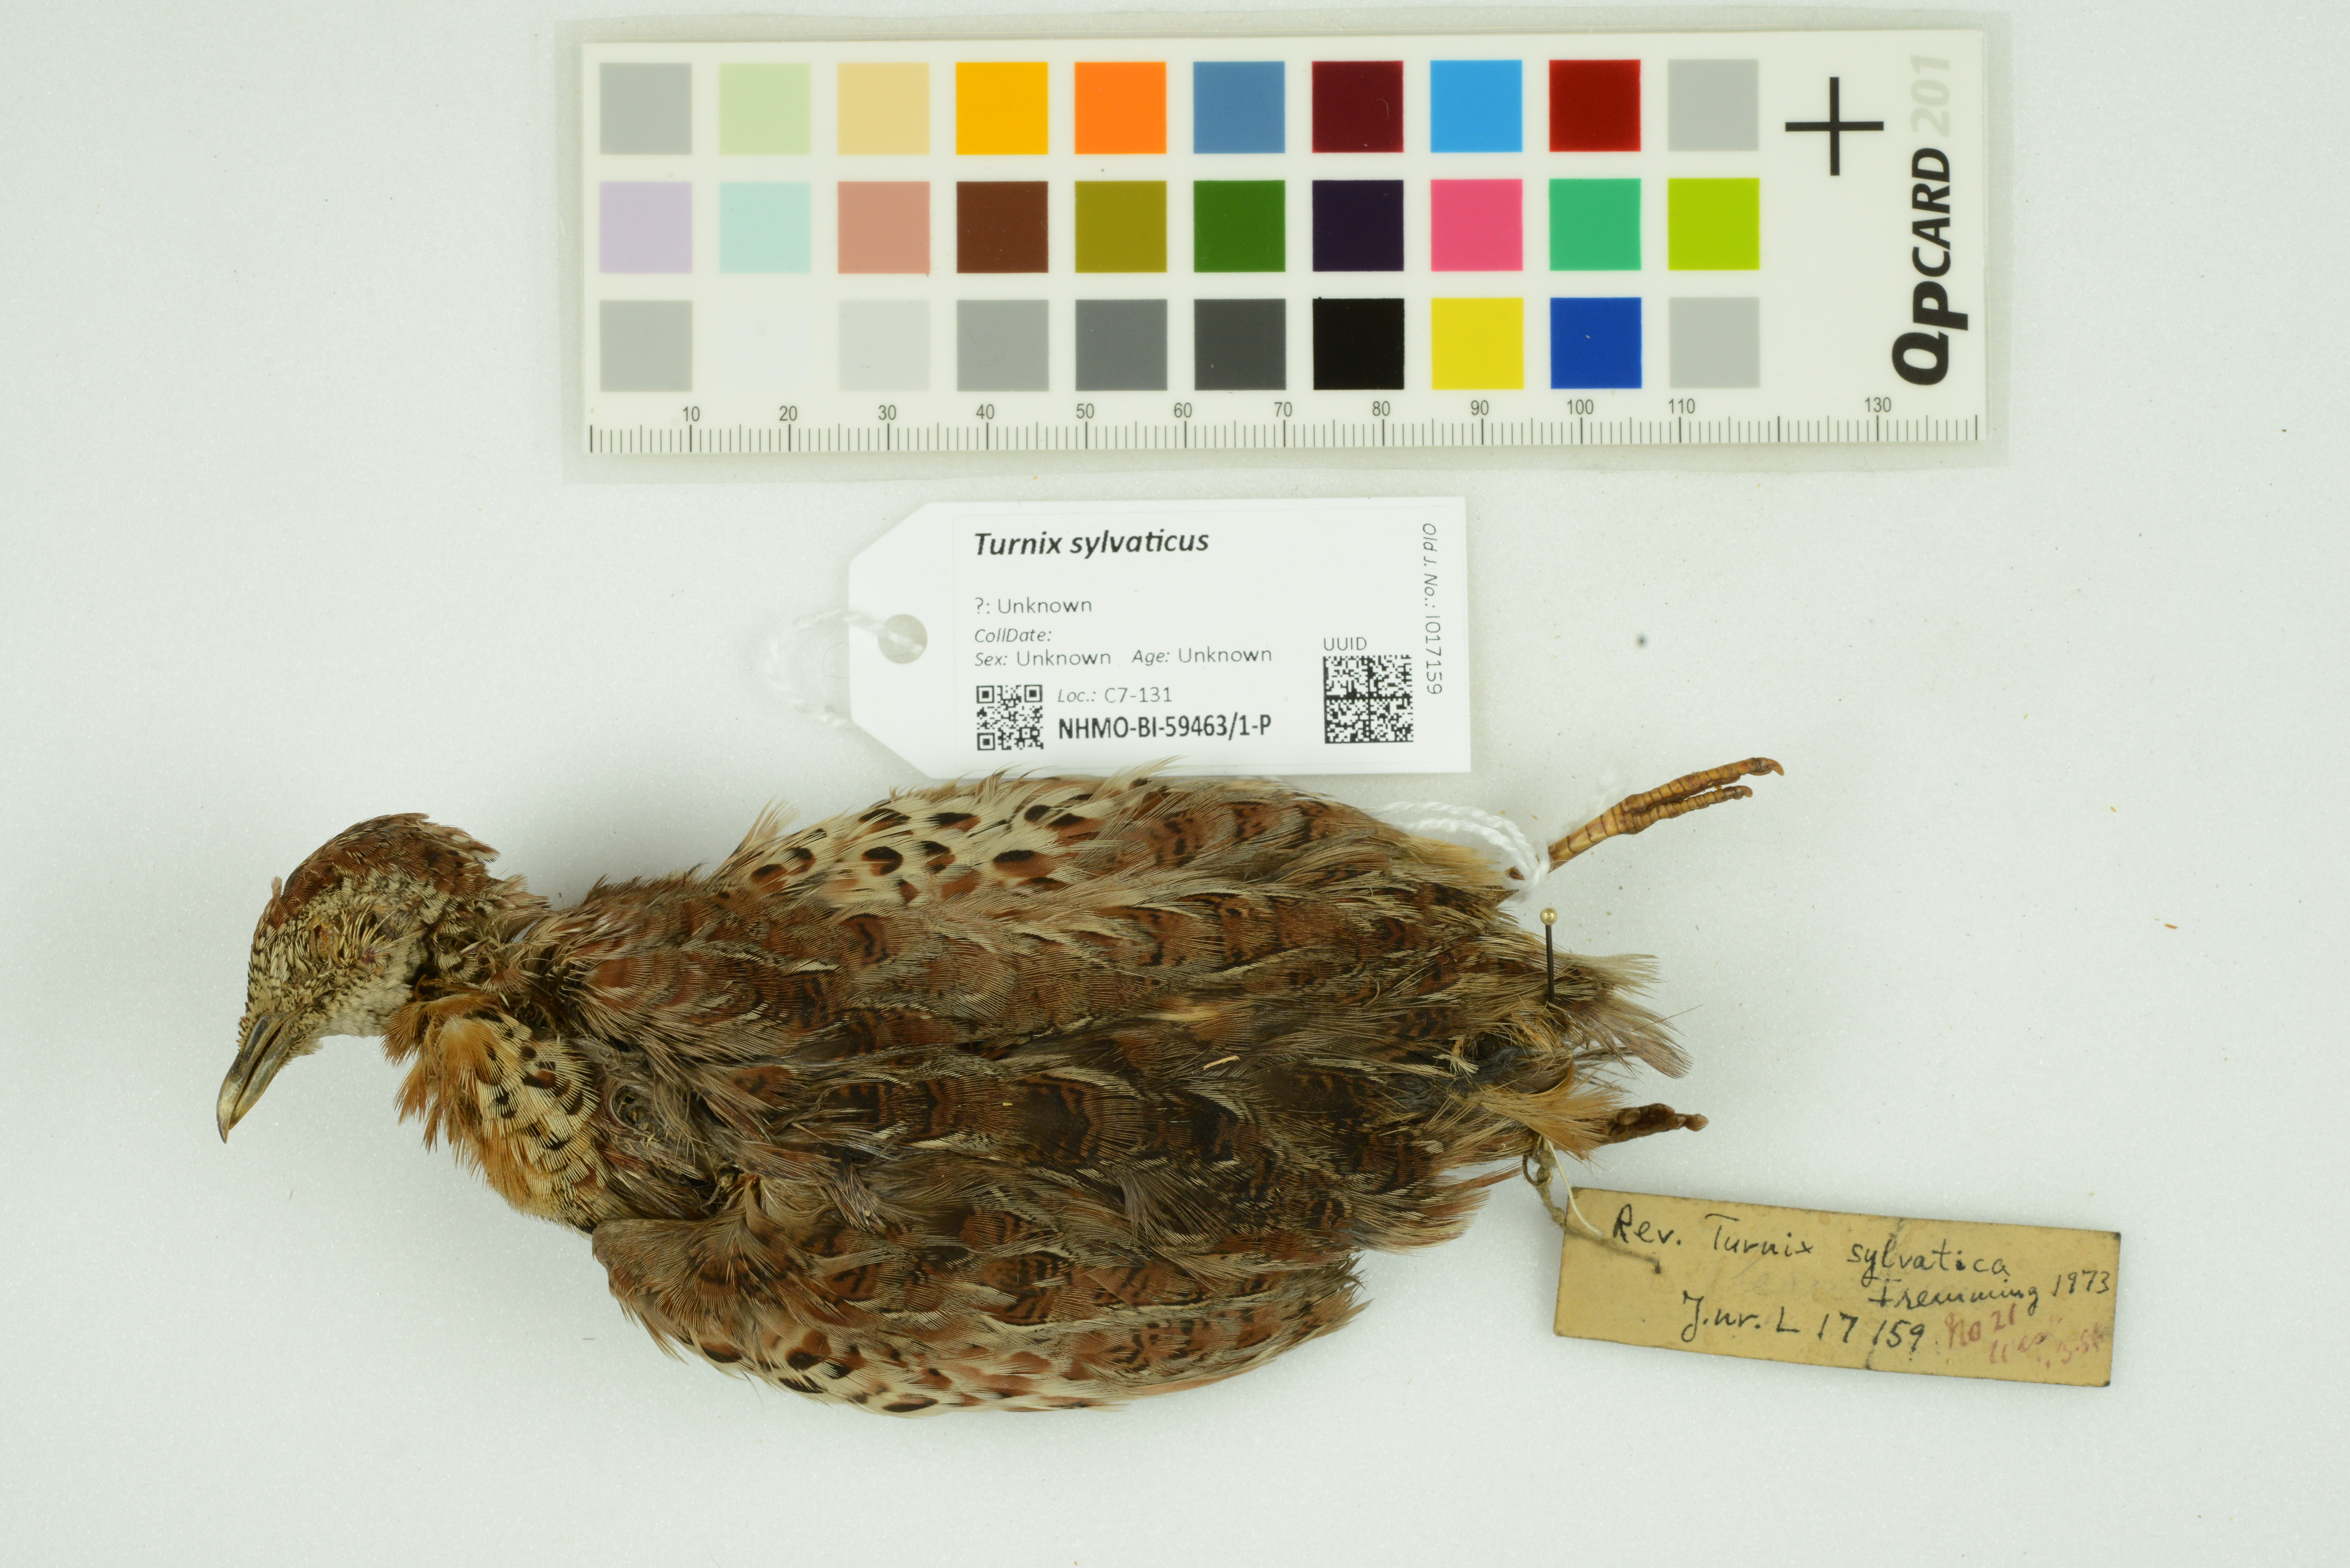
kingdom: Animalia
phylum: Chordata
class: Aves
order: Charadriiformes
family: Turnicidae
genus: Turnix
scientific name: Turnix sylvaticus
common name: Common buttonquail
